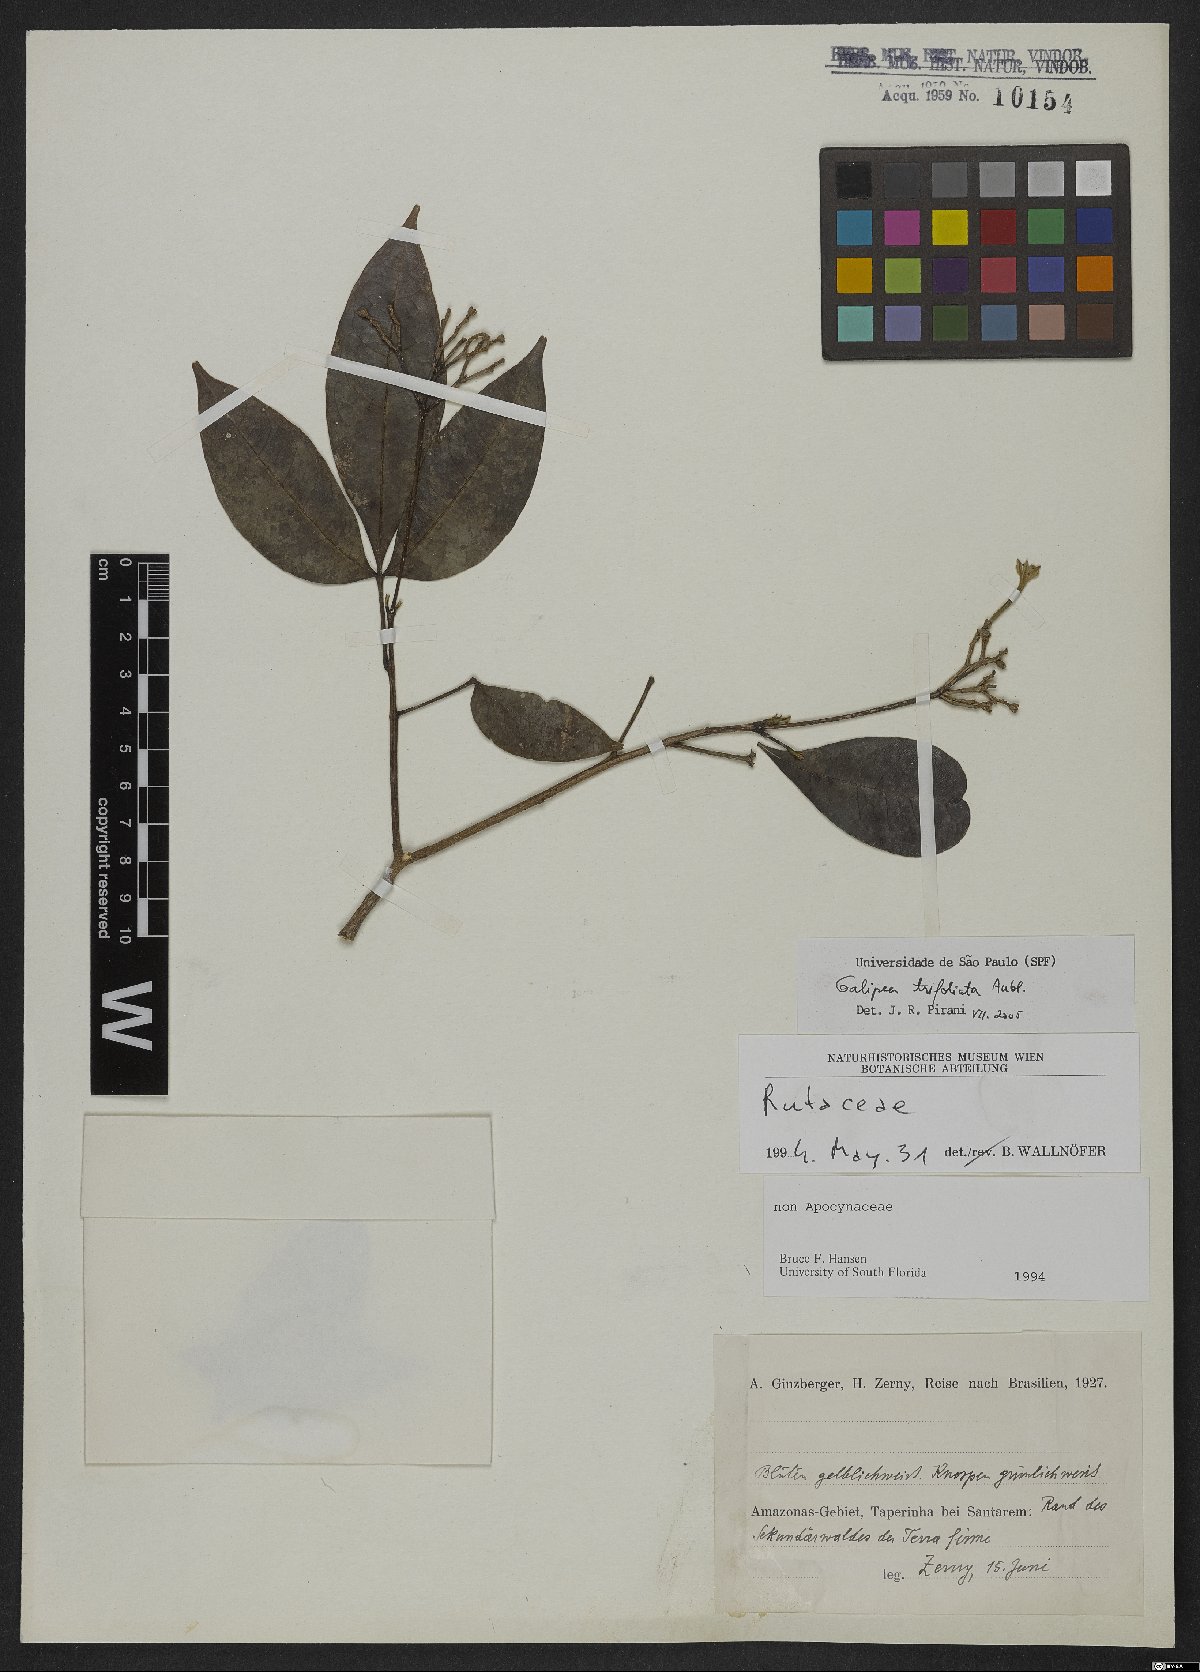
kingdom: Plantae
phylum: Tracheophyta
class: Magnoliopsida
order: Sapindales
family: Rutaceae
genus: Galipea
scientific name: Galipea trifoliata
